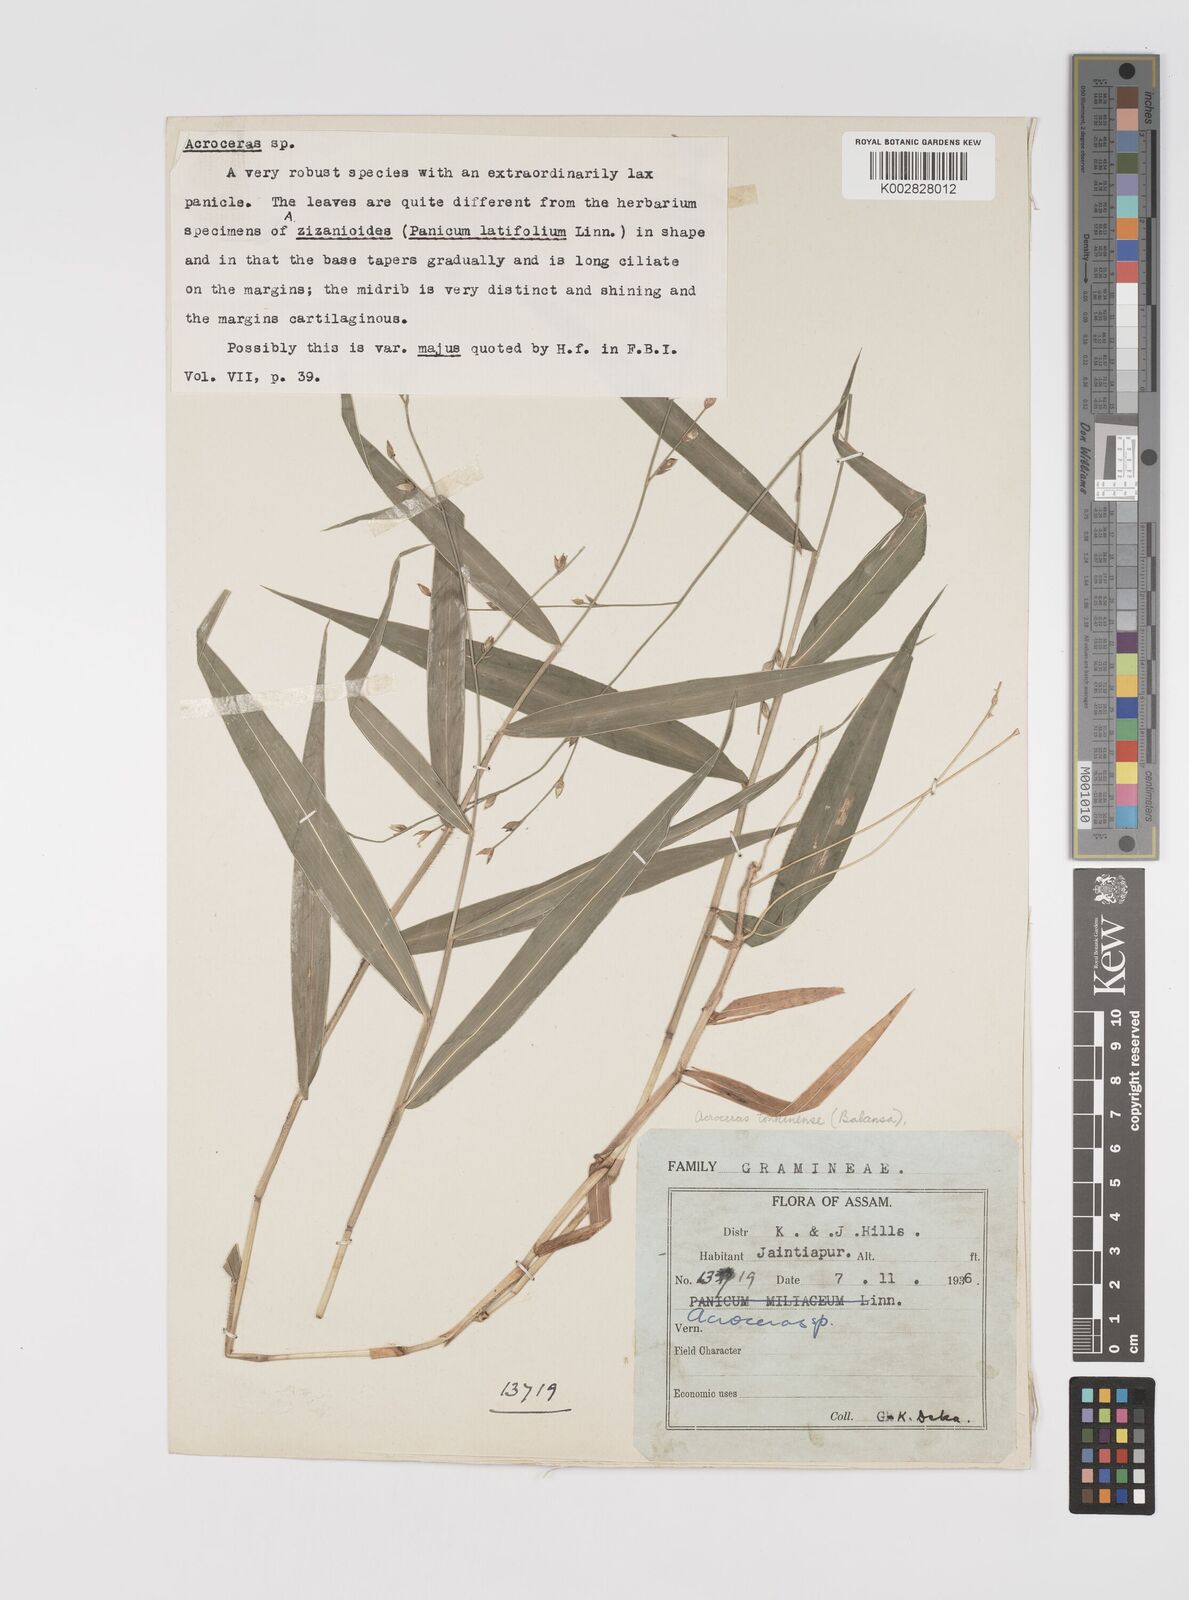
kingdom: Plantae
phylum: Tracheophyta
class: Liliopsida
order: Poales
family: Poaceae
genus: Acroceras
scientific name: Acroceras
